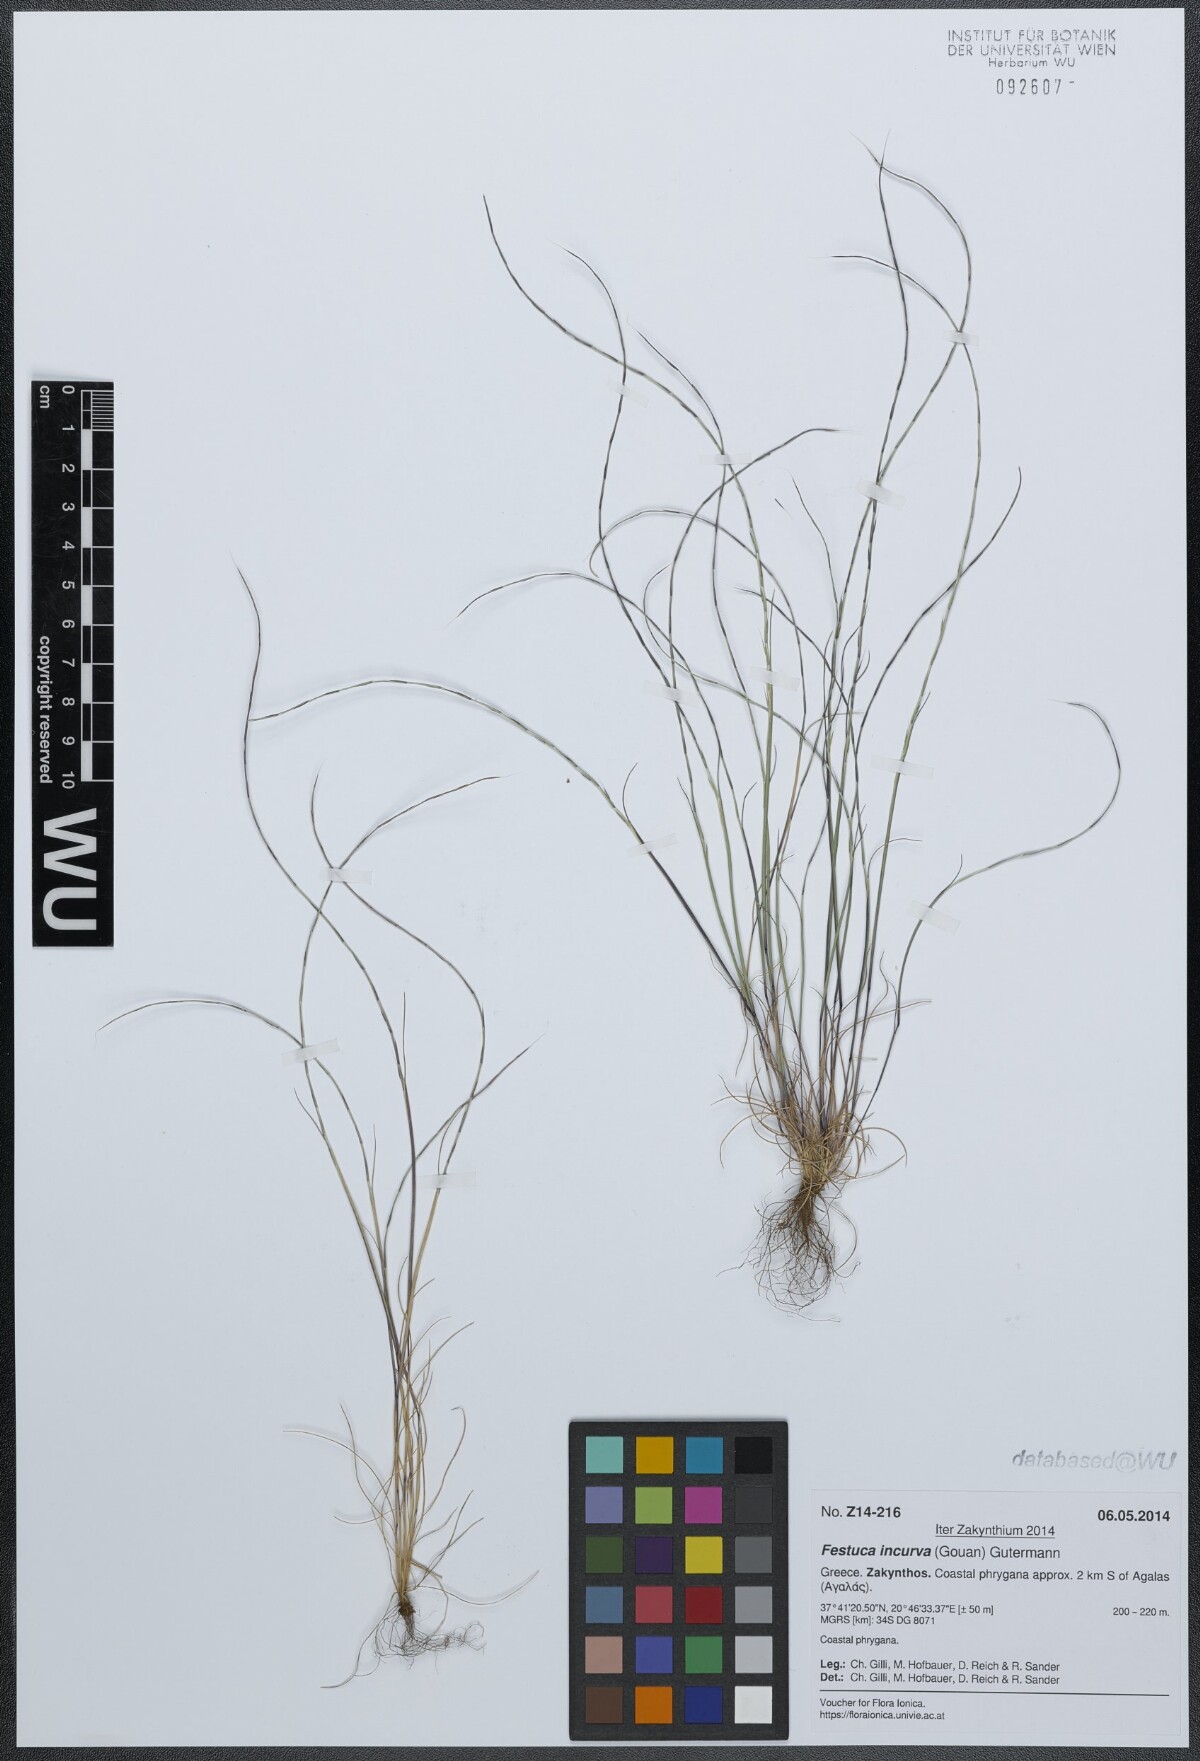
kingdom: Plantae
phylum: Tracheophyta
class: Liliopsida
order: Poales
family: Poaceae
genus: Festuca
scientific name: Festuca incurva
